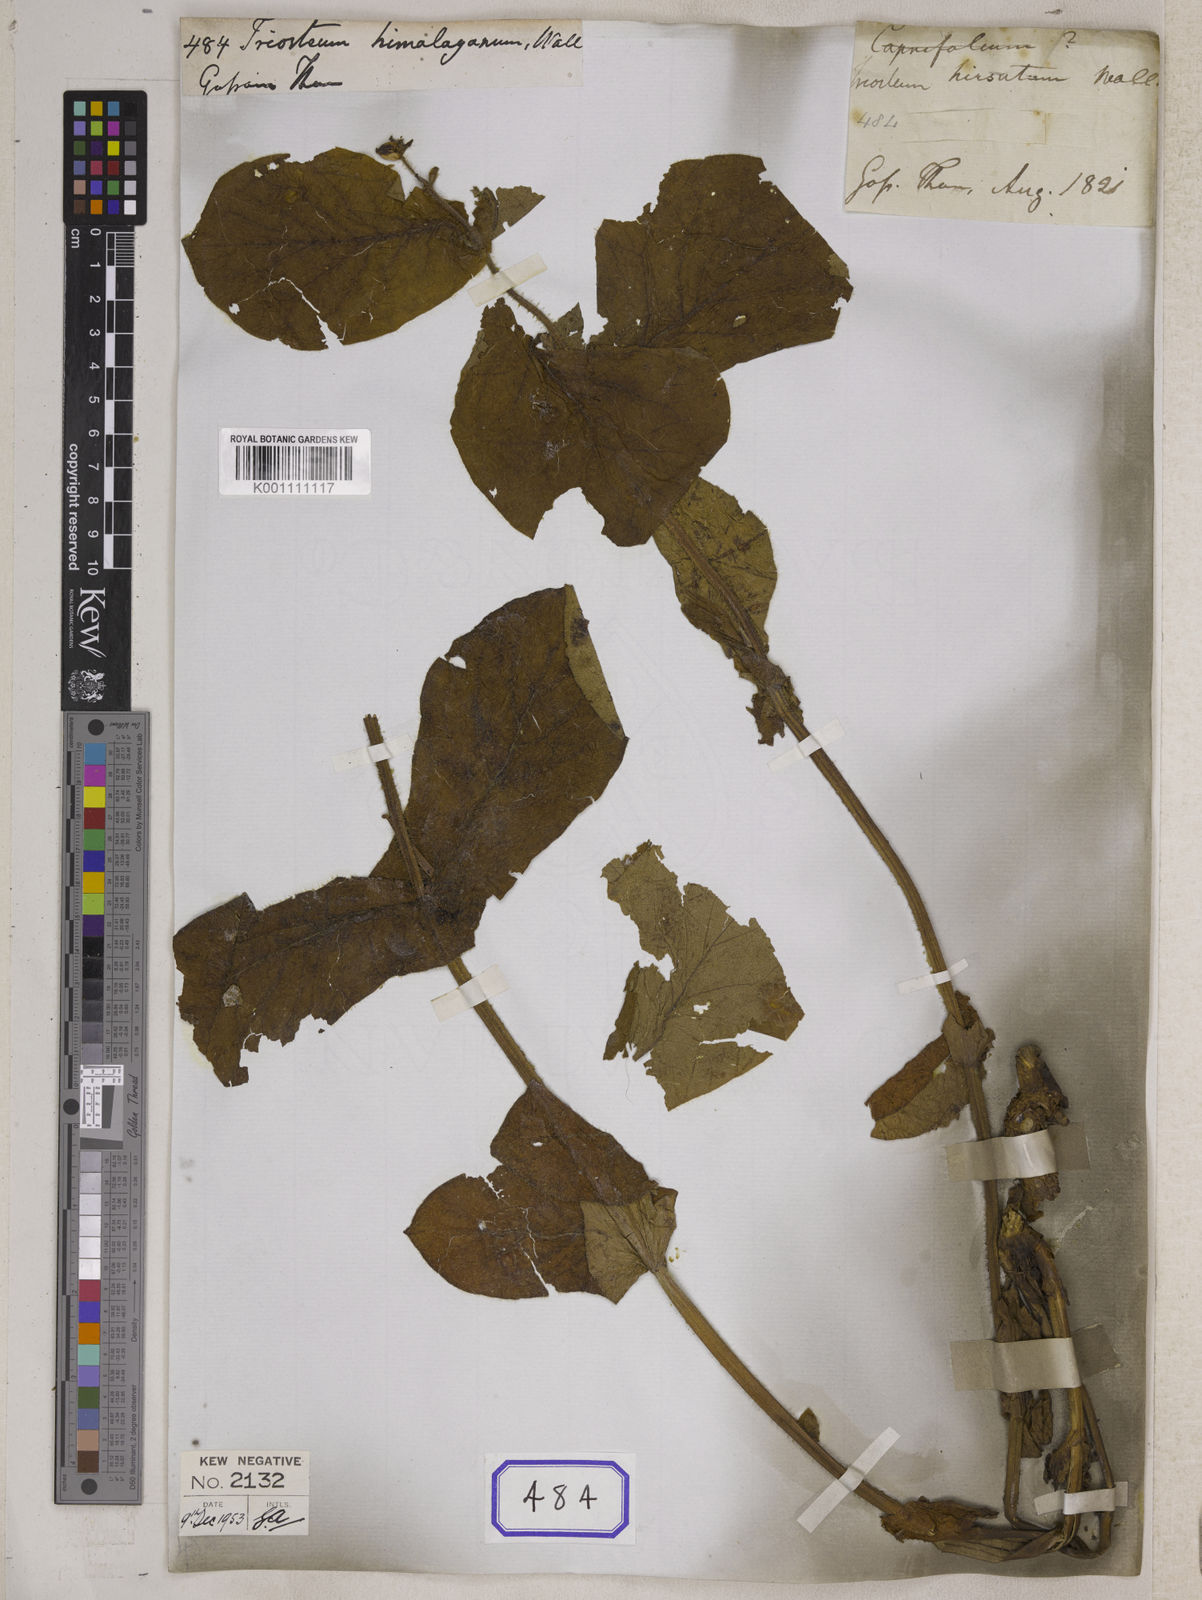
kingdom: Plantae
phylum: Tracheophyta
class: Magnoliopsida
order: Dipsacales
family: Caprifoliaceae
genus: Triosteum
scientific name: Triosteum himalayanum
